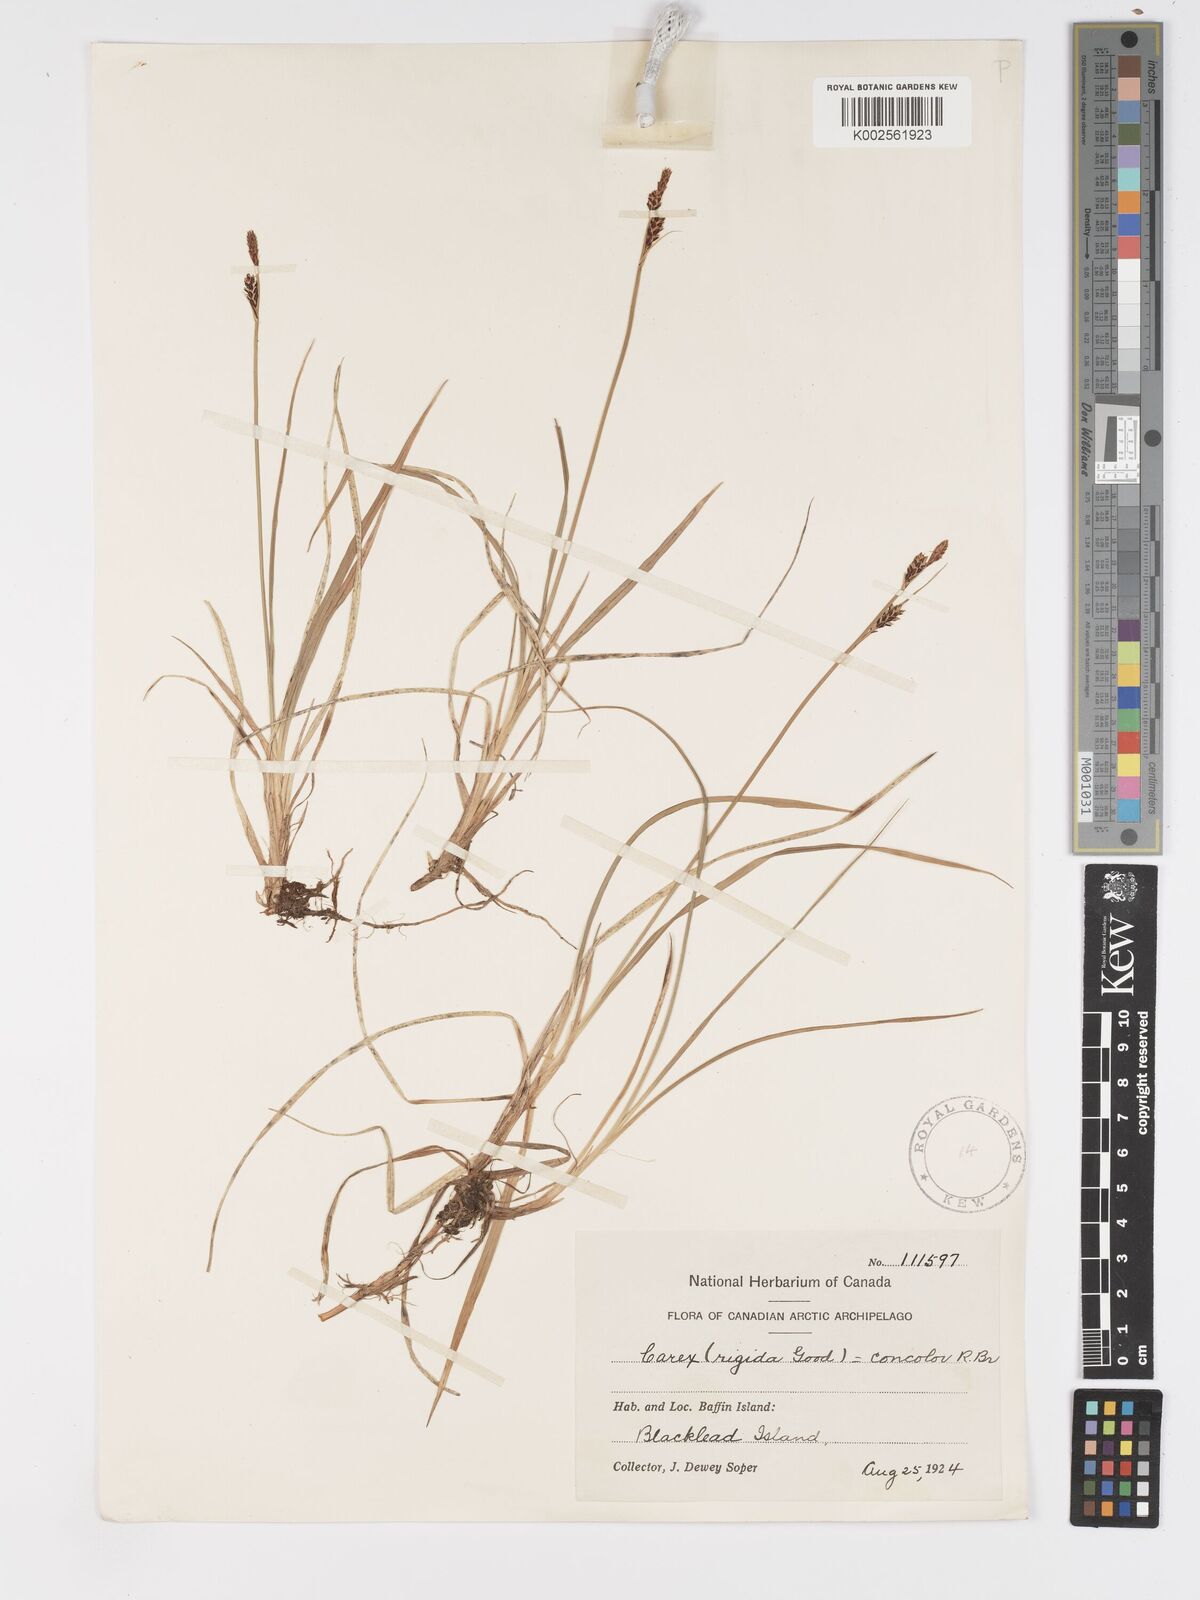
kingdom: Plantae
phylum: Tracheophyta
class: Liliopsida
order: Poales
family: Cyperaceae
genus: Carex
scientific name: Carex bigelowii
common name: Stiff sedge
